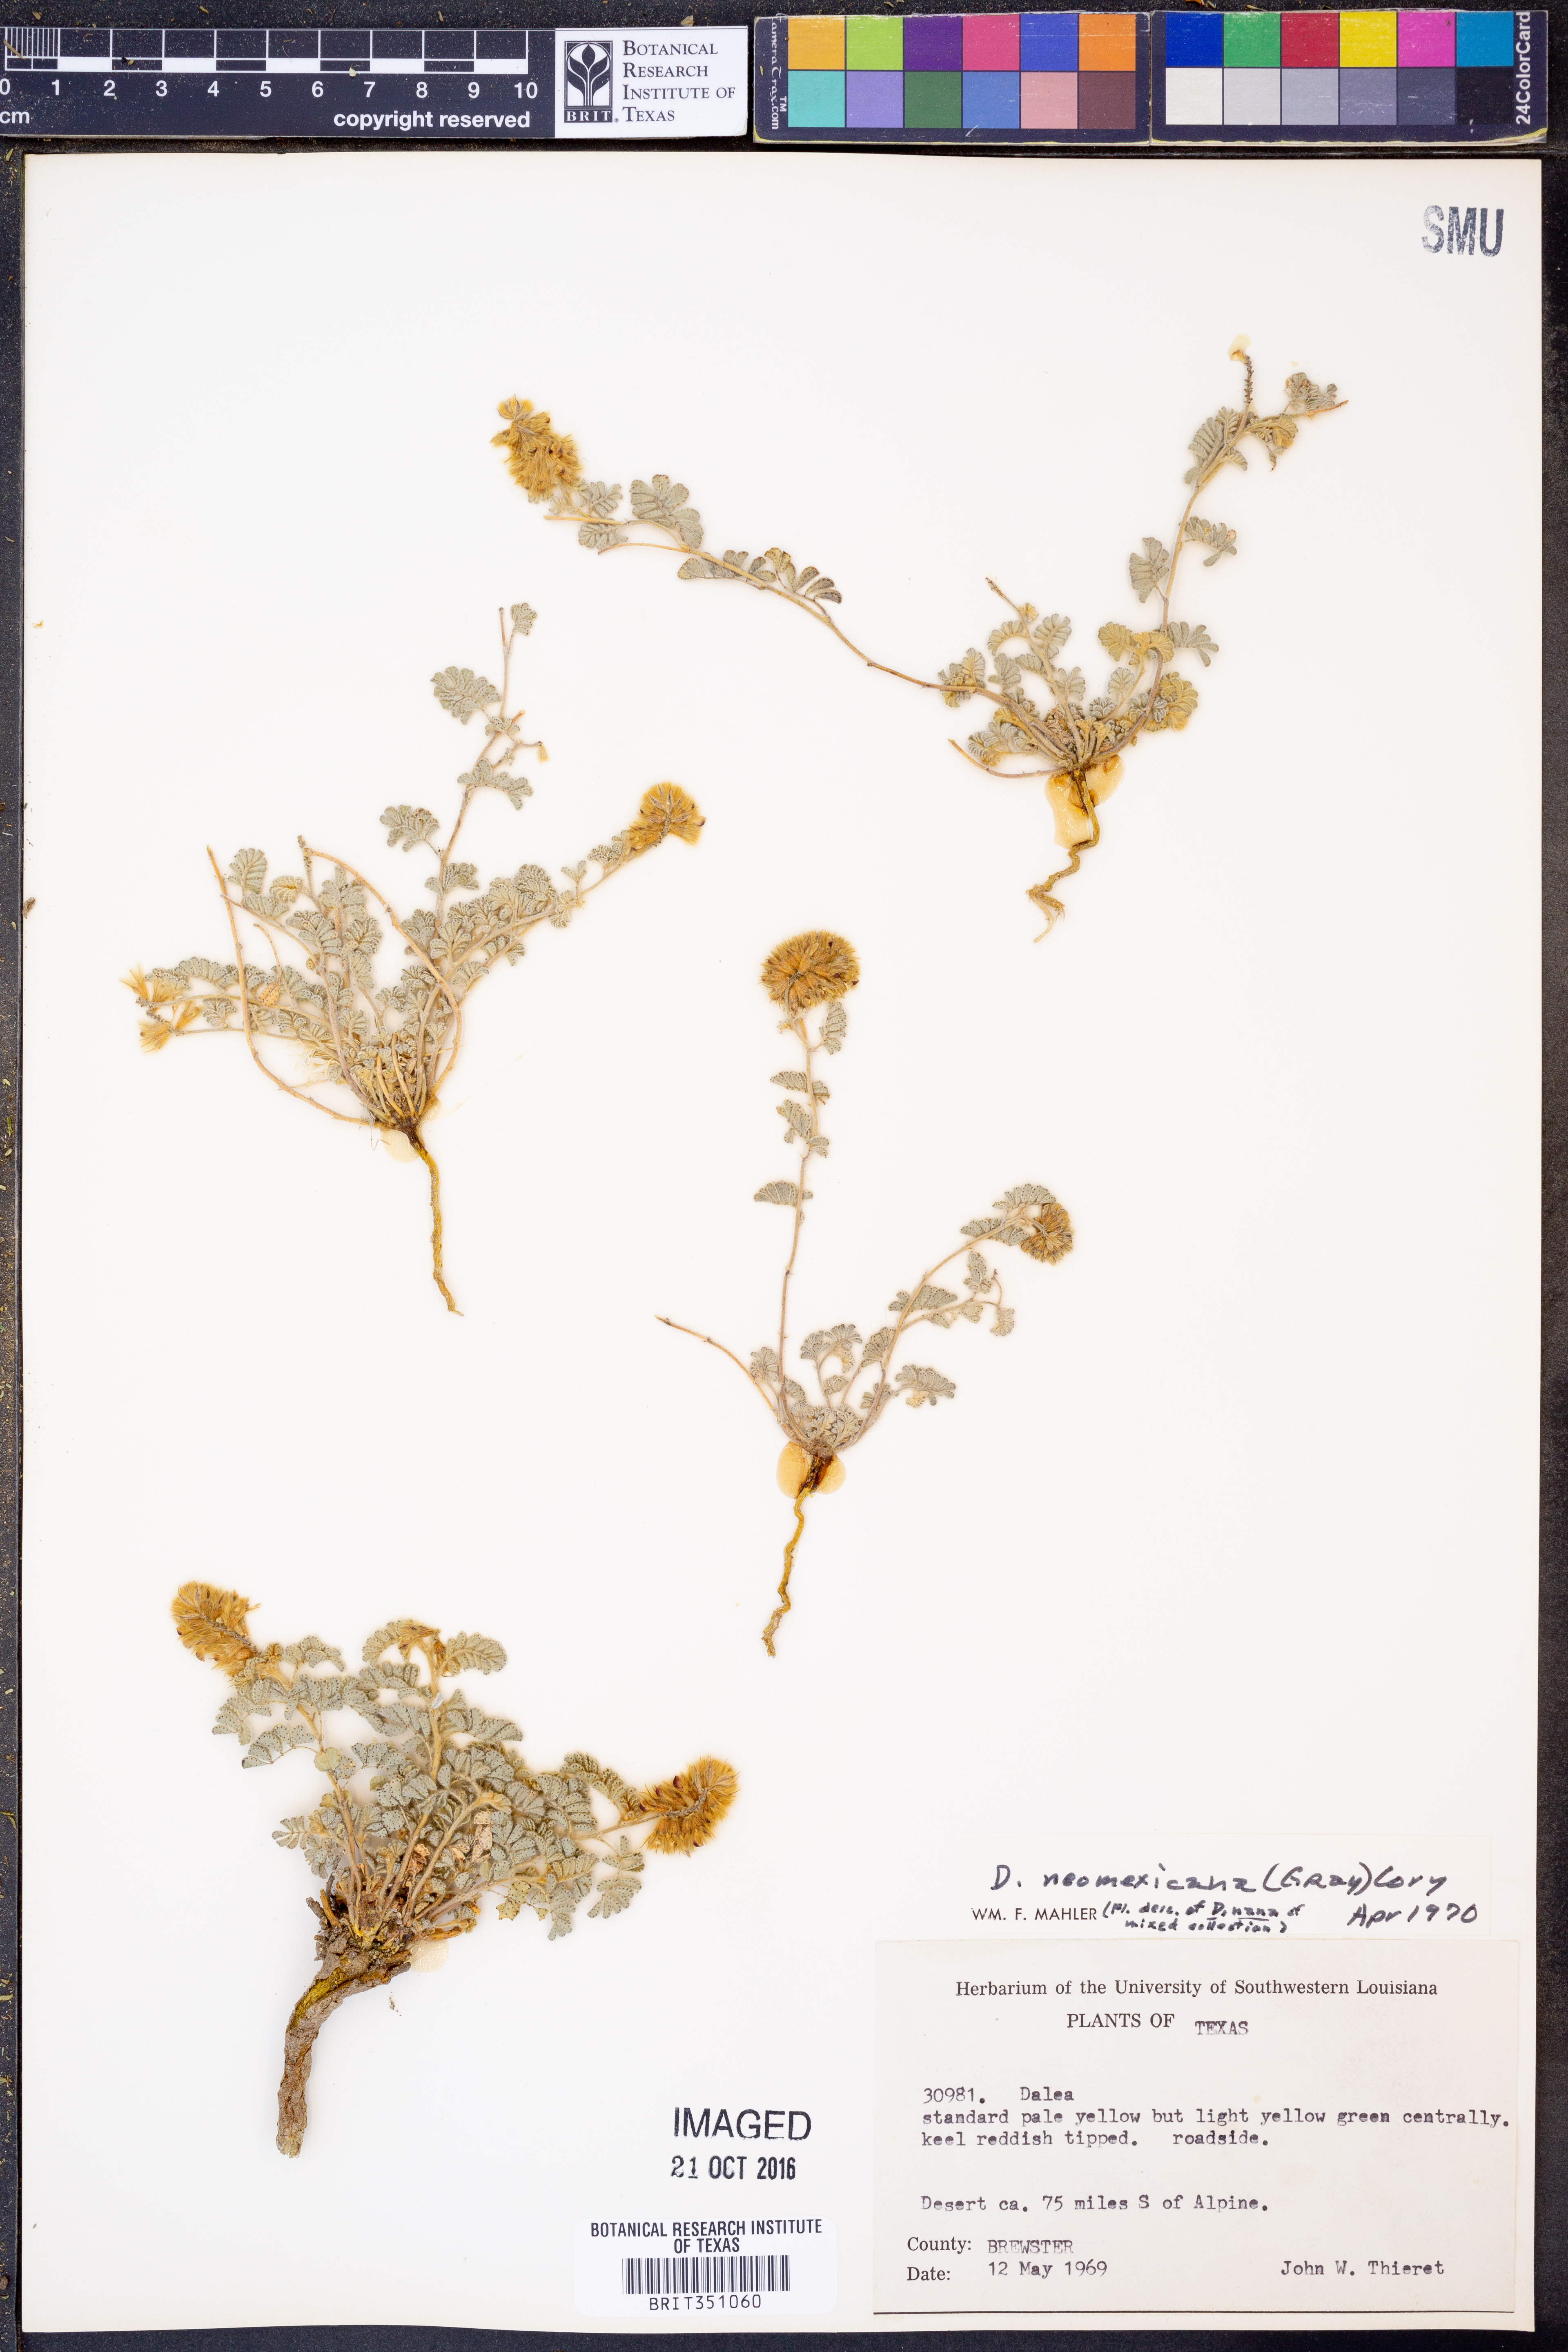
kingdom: Plantae
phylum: Tracheophyta
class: Magnoliopsida
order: Fabales
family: Fabaceae
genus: Dalea
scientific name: Dalea neomexicana
